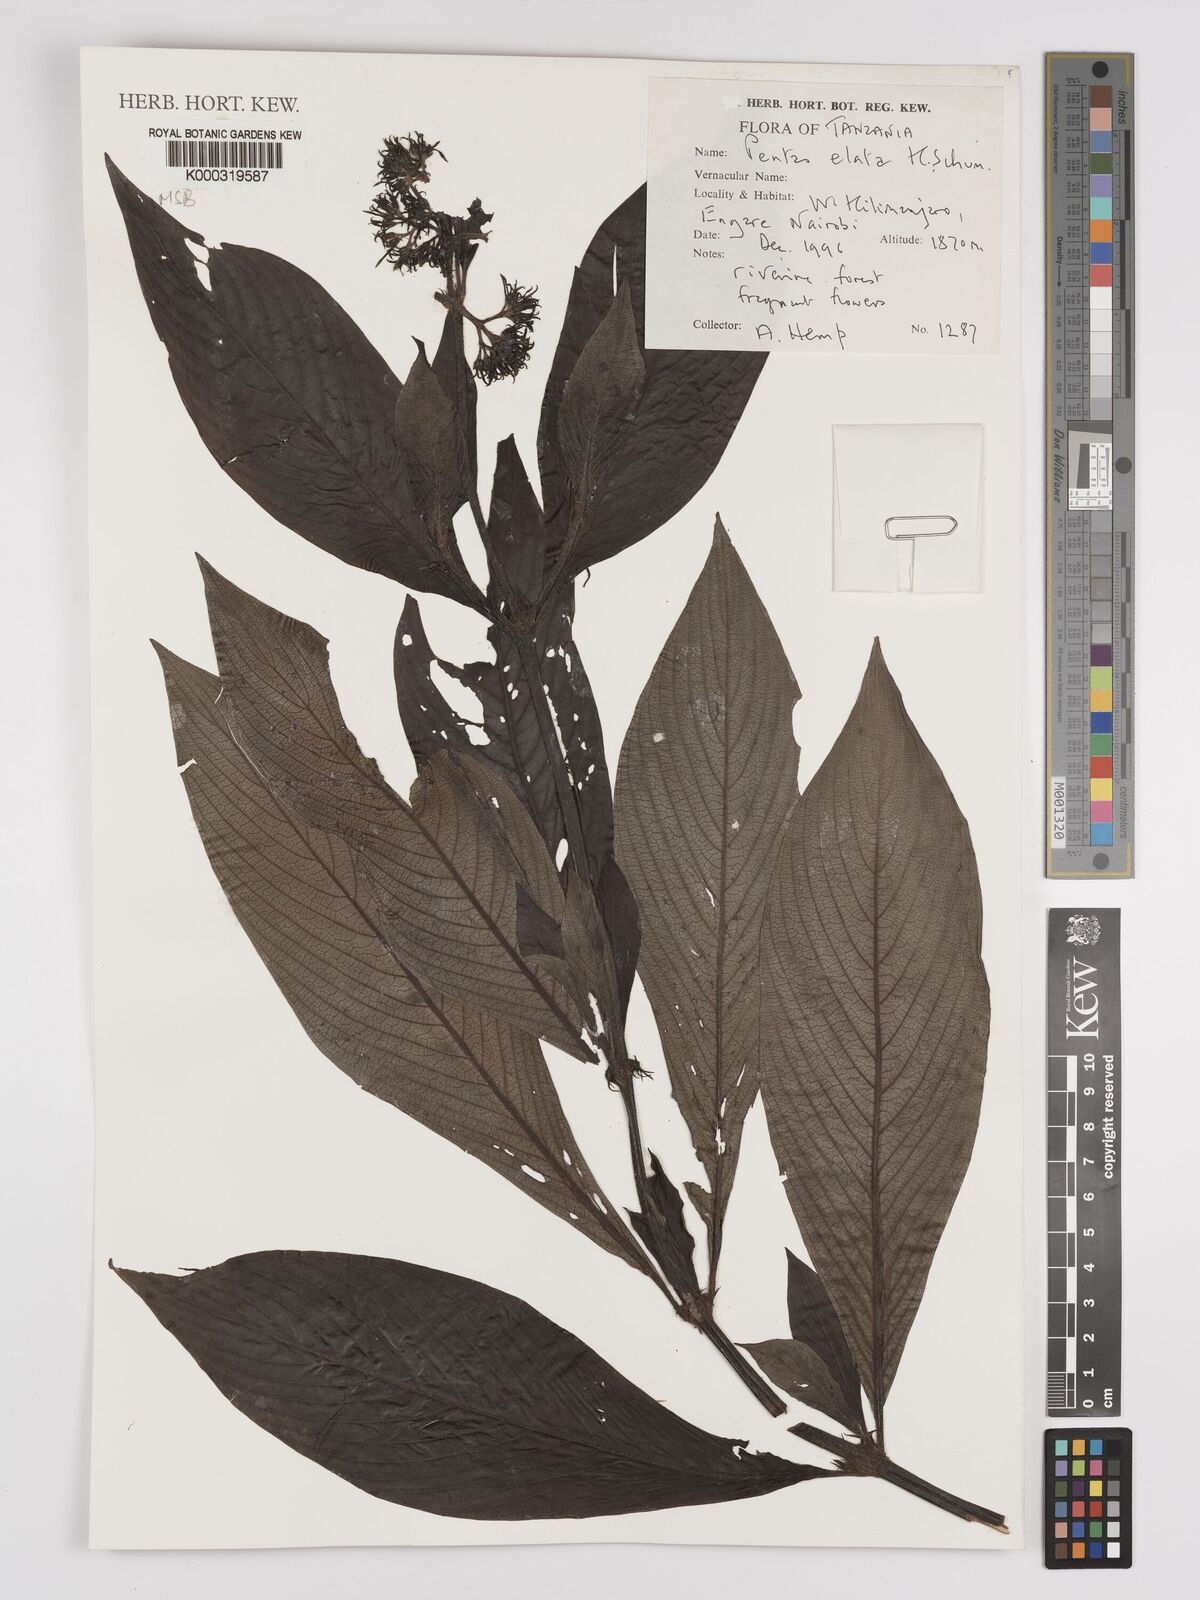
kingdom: Plantae
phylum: Tracheophyta
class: Magnoliopsida
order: Gentianales
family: Rubiaceae
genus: Phyllopentas
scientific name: Phyllopentas elata
